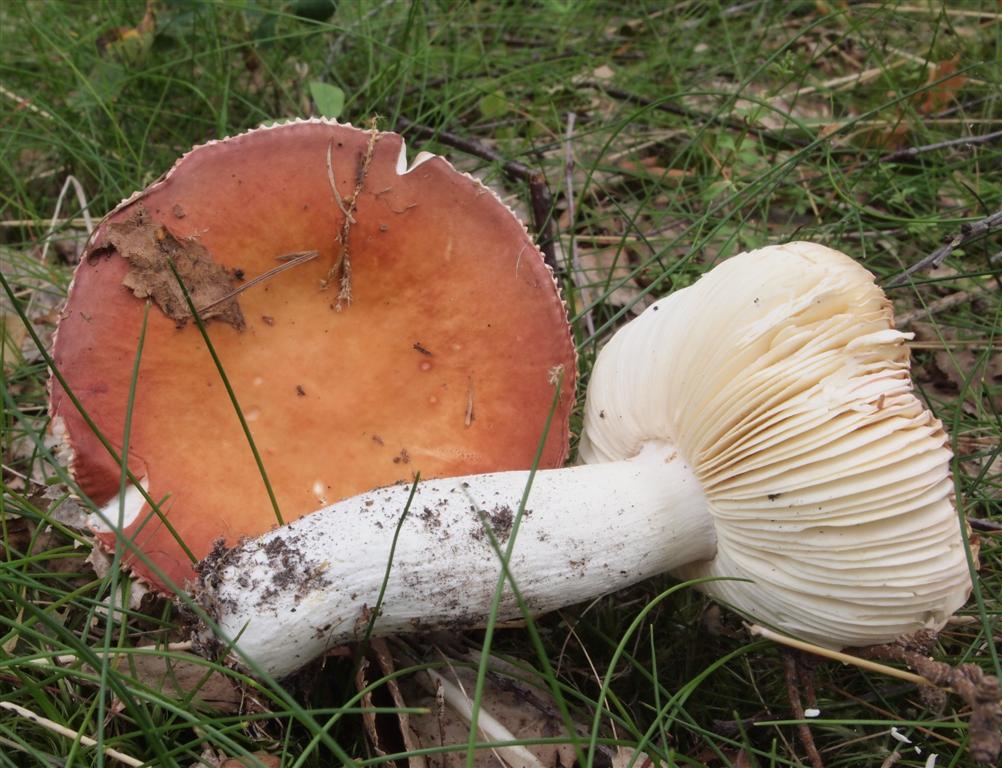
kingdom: Fungi
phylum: Basidiomycota
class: Agaricomycetes
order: Russulales
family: Russulaceae
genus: Russula
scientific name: Russula velenovskyi
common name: orangerød skørhat
